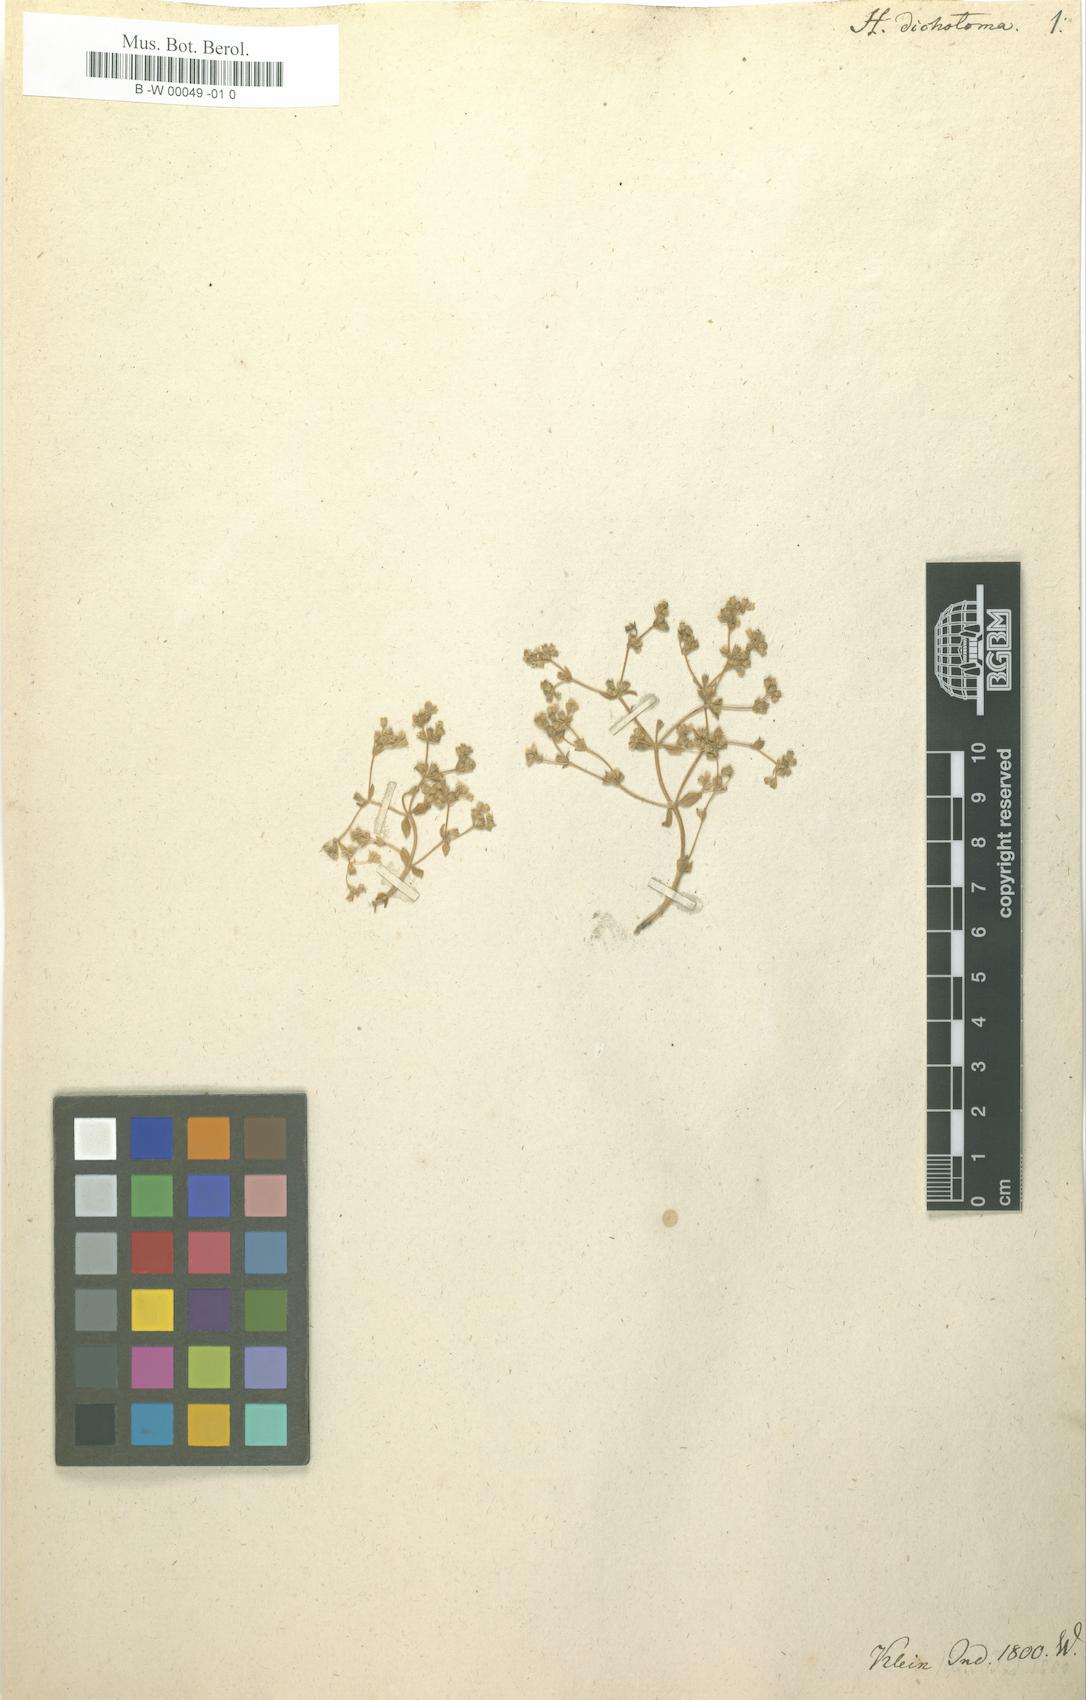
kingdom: Plantae
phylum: Tracheophyta
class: Magnoliopsida
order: Gentianales
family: Gentianaceae
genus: Hoppea
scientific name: Hoppea dichotoma
